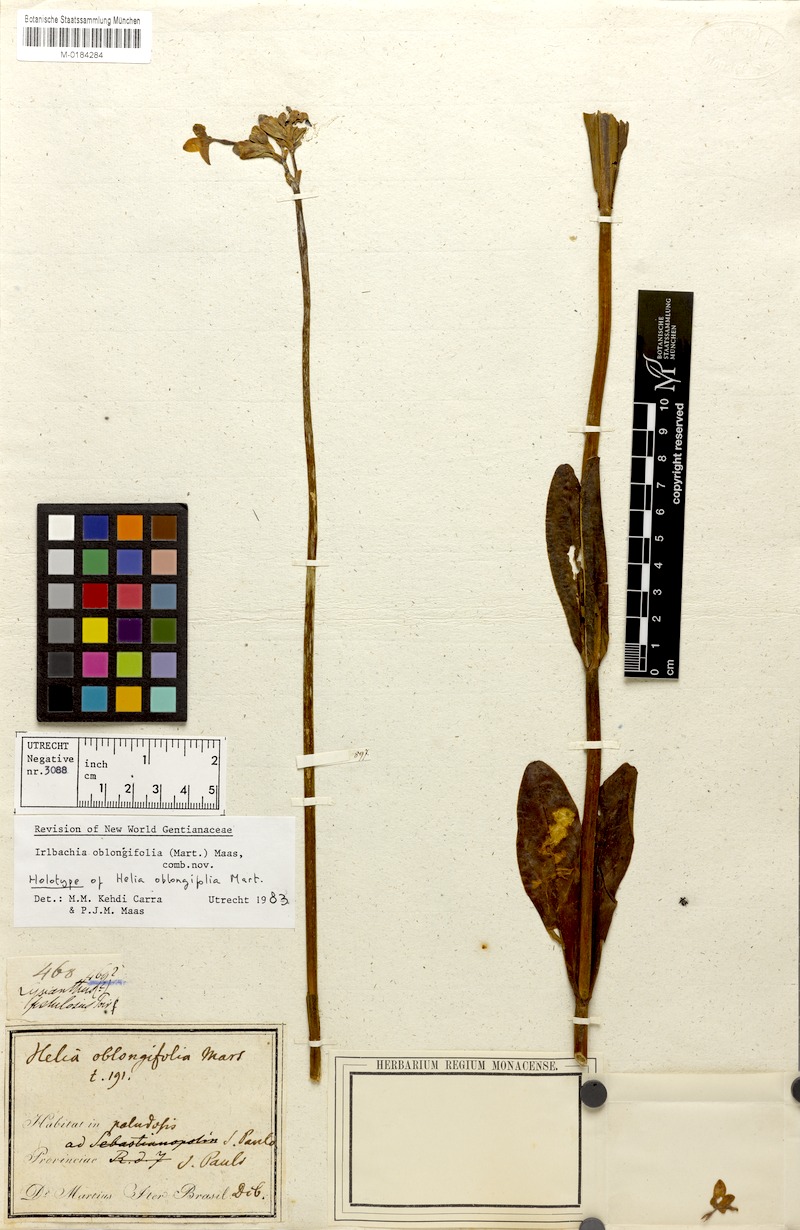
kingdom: Plantae
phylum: Tracheophyta
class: Magnoliopsida
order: Gentianales
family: Gentianaceae
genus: Irlbachia
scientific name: Irlbachia oblongifolia
